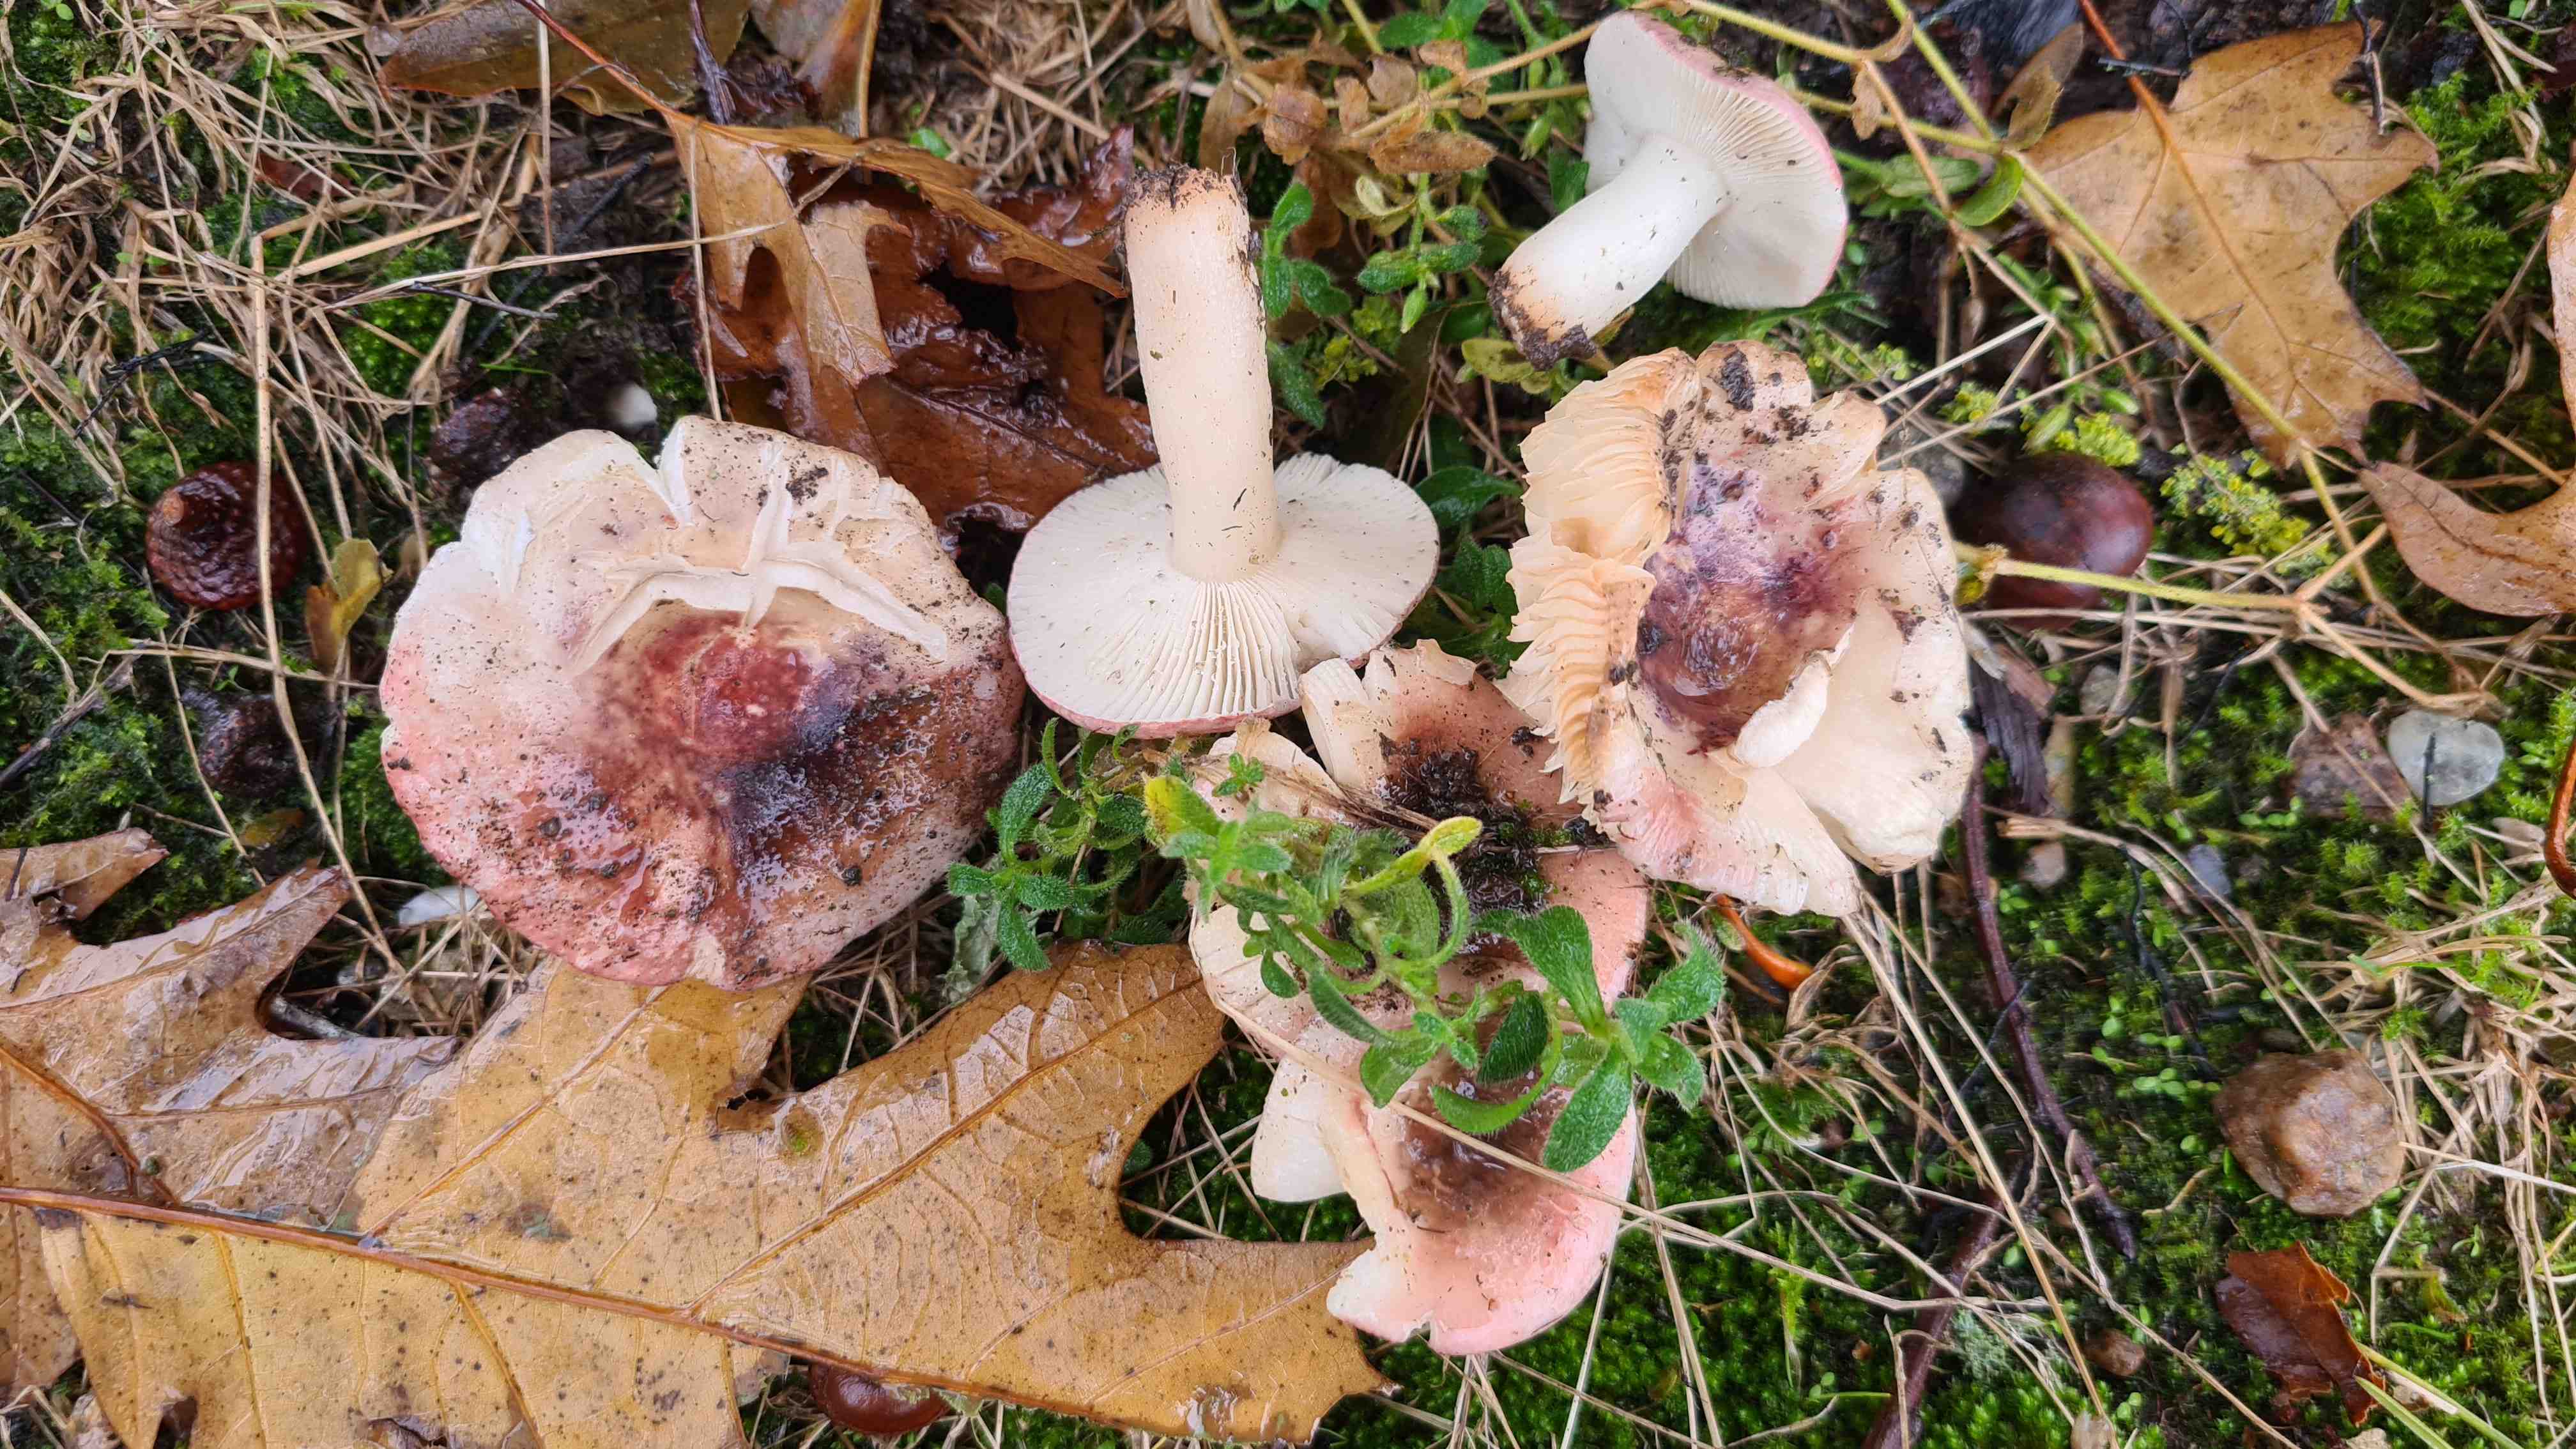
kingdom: Fungi
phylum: Basidiomycota
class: Agaricomycetes
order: Russulales
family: Russulaceae
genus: Russula
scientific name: Russula fragilis
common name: savbladet skørhat
